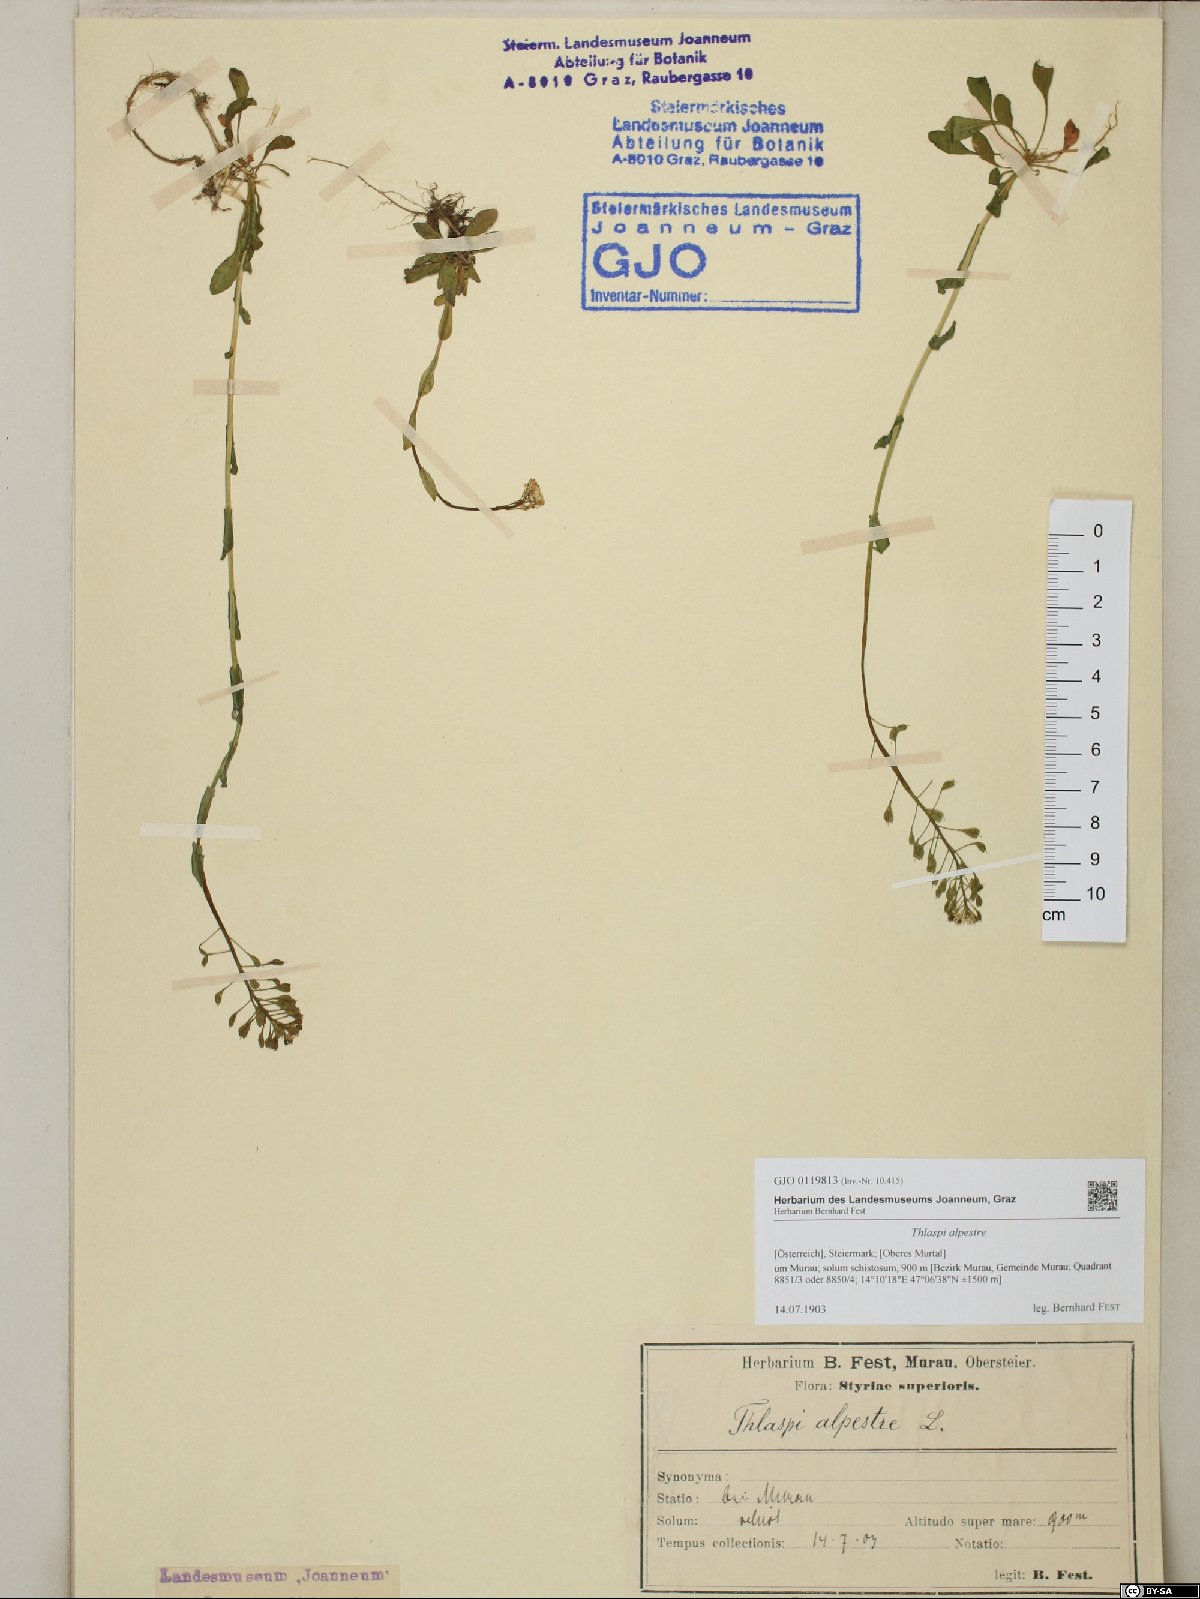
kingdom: Plantae
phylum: Tracheophyta
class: Magnoliopsida
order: Brassicales
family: Brassicaceae
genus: Noccaea
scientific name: Noccaea alpestris
